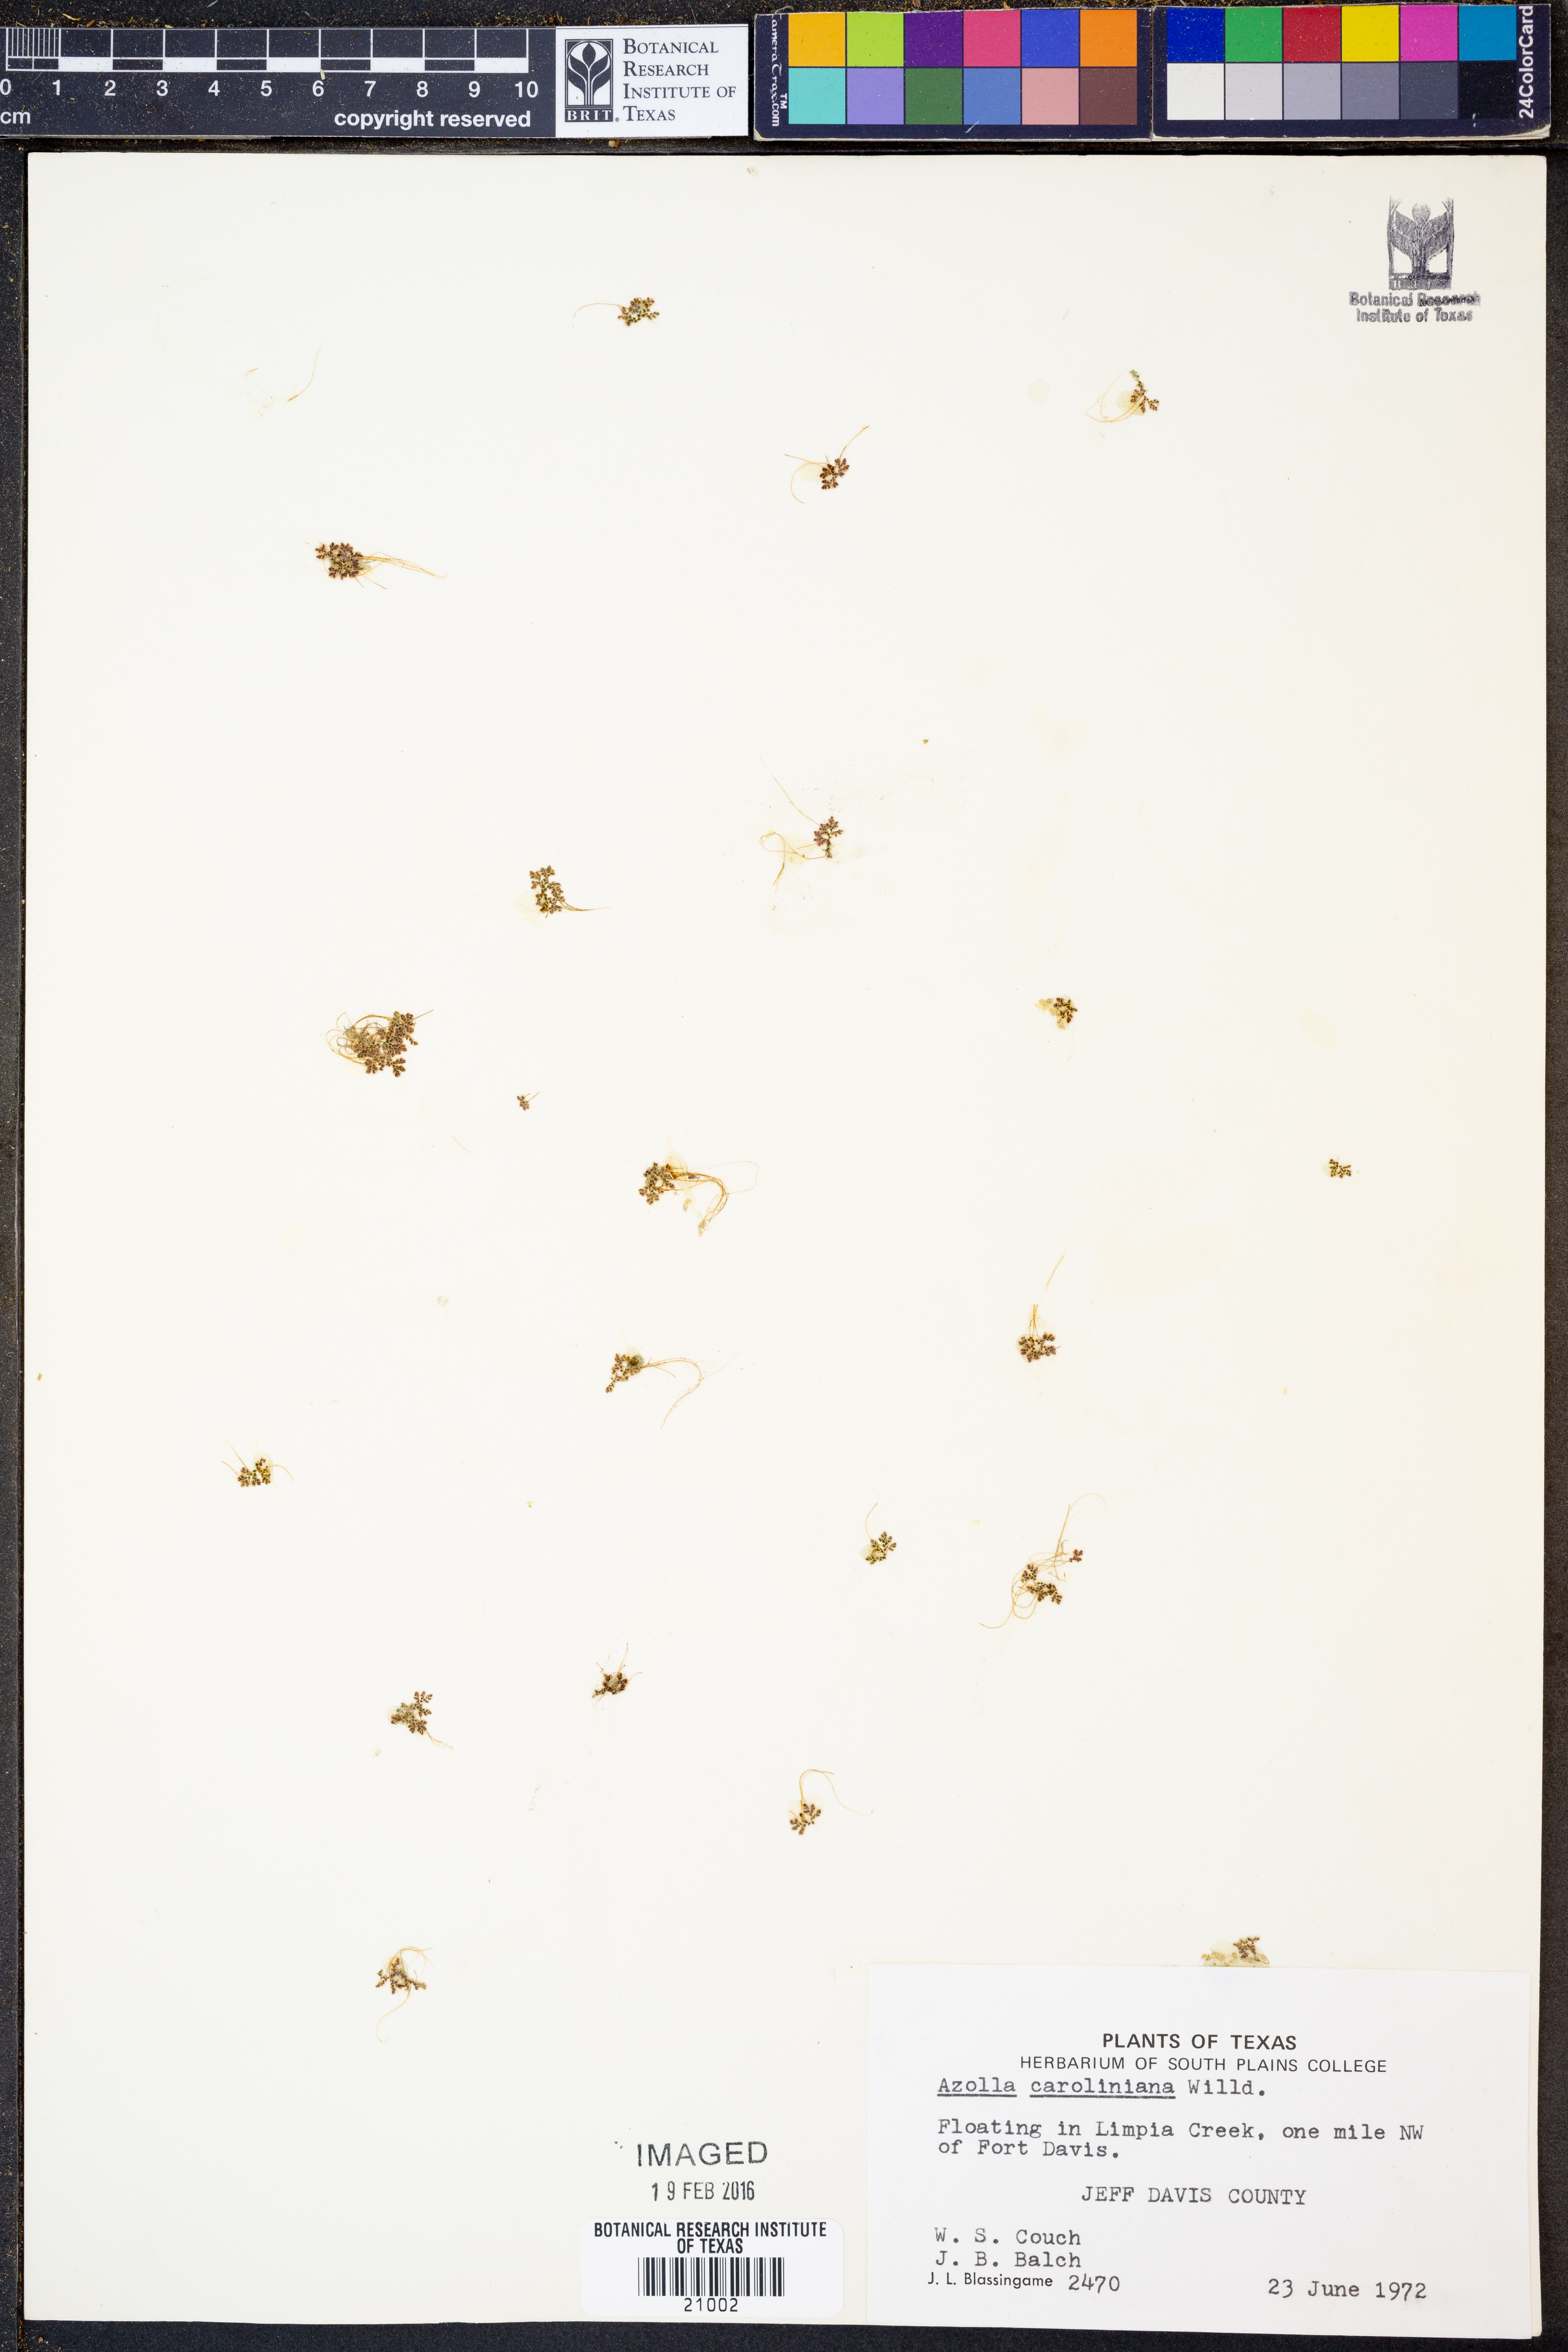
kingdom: Plantae
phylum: Tracheophyta
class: Polypodiopsida
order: Salviniales
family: Salviniaceae
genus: Azolla
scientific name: Azolla caroliniana
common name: Carolina mosquitofern
